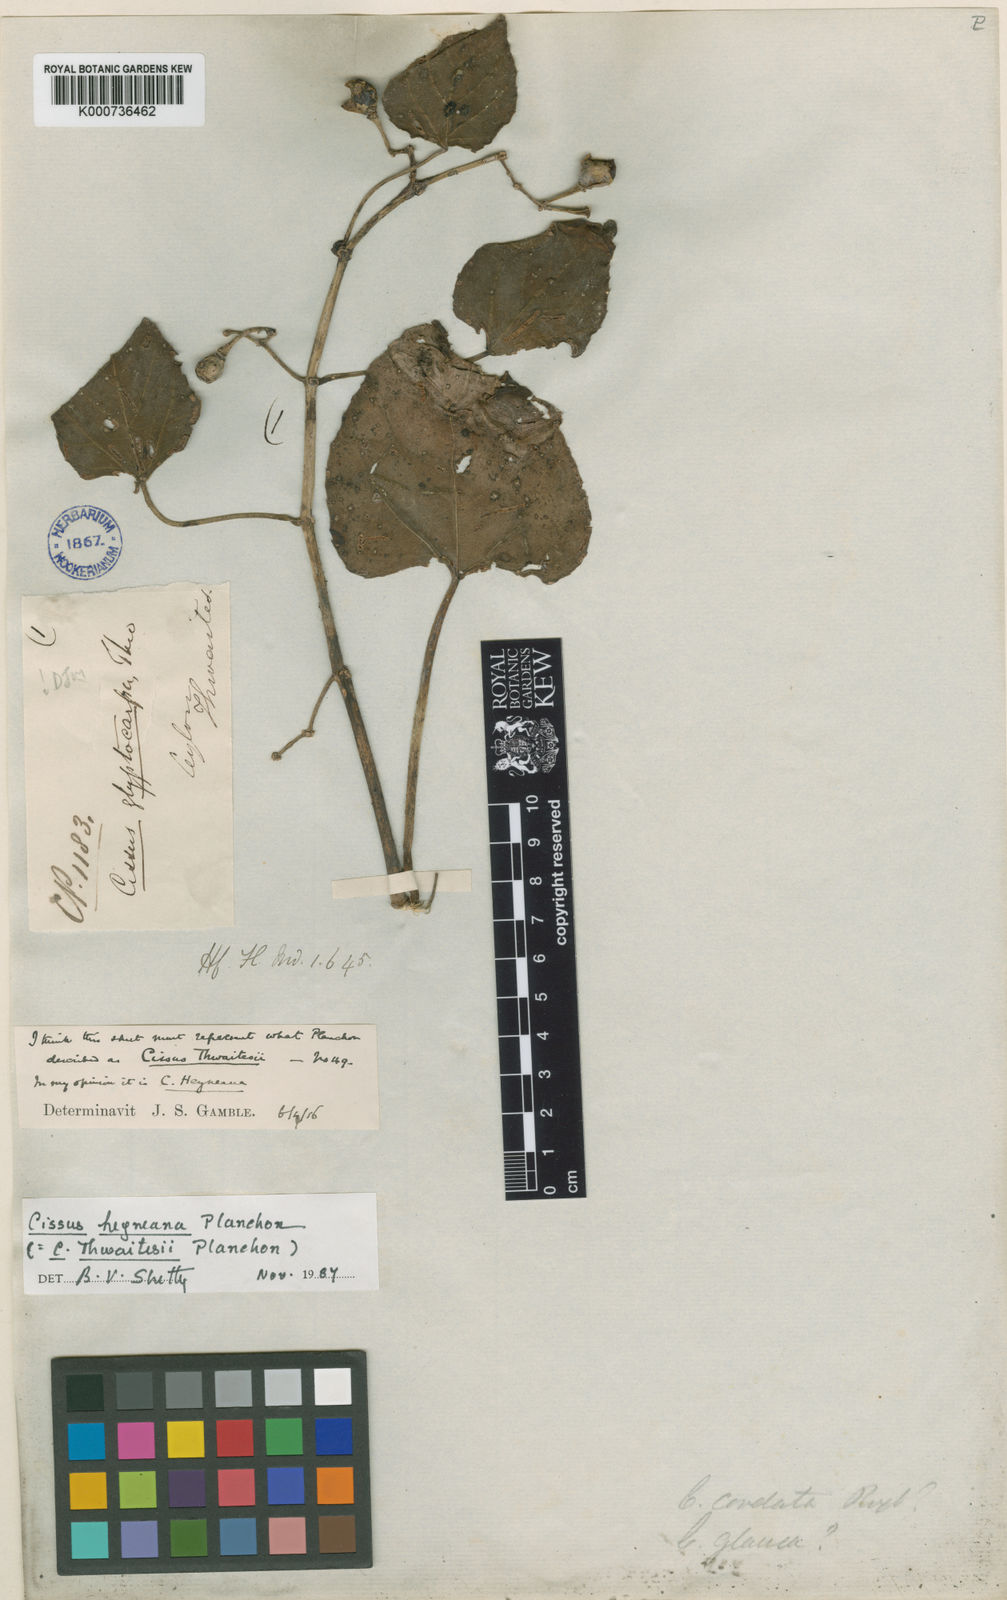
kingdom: Plantae
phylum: Tracheophyta
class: Magnoliopsida
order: Vitales
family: Vitaceae
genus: Cissus
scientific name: Cissus
